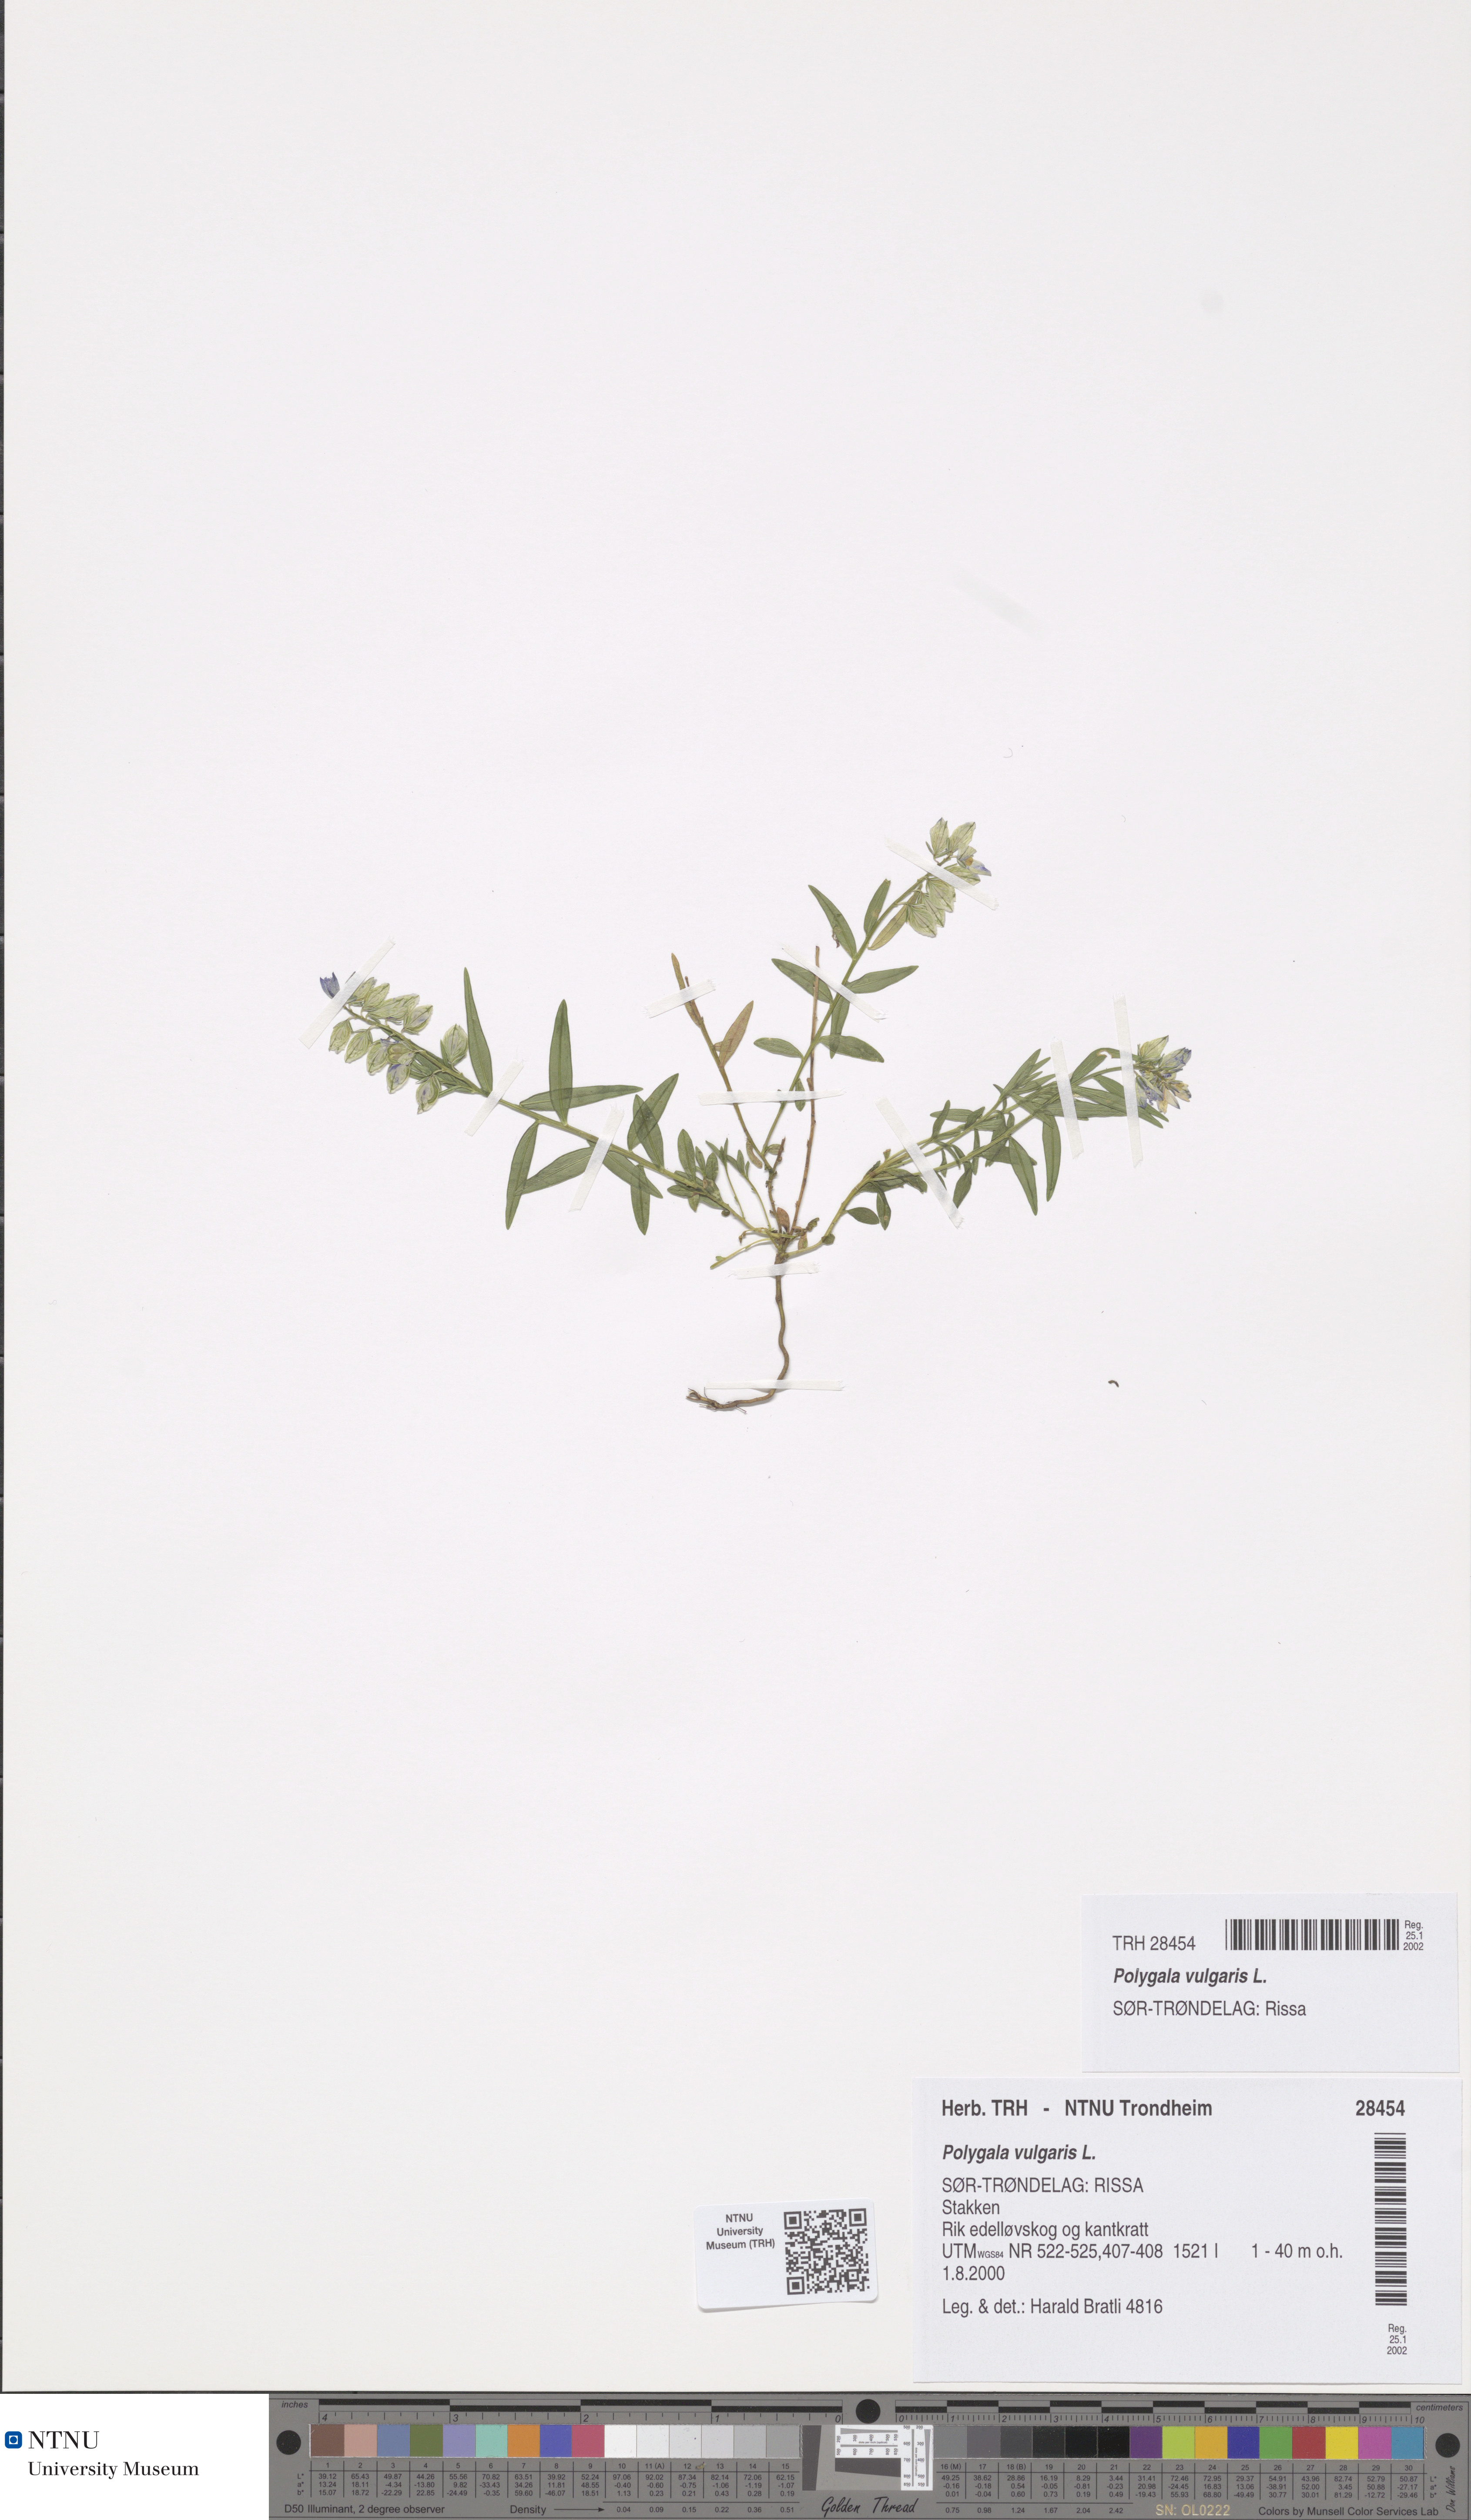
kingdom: Plantae
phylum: Tracheophyta
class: Magnoliopsida
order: Fabales
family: Polygalaceae
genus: Polygala
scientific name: Polygala vulgaris
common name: Common milkwort
